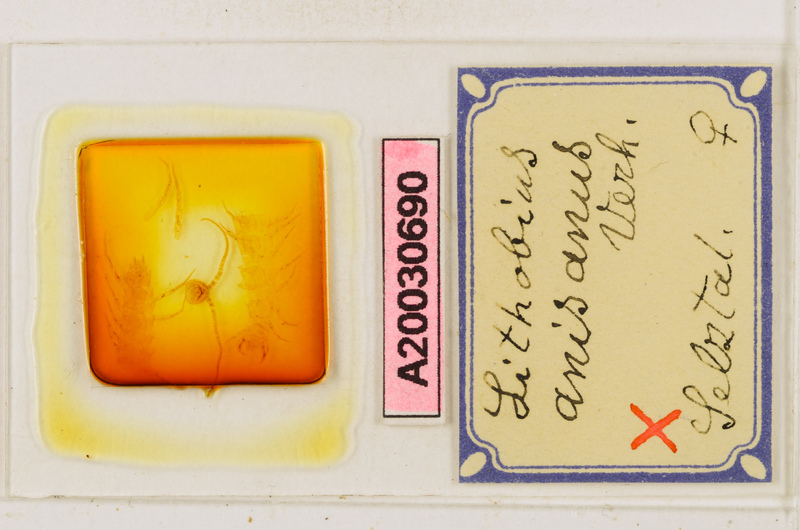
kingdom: Animalia
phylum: Arthropoda
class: Chilopoda
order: Lithobiomorpha
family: Lithobiidae
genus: Lithobius
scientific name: Lithobius anisanus
